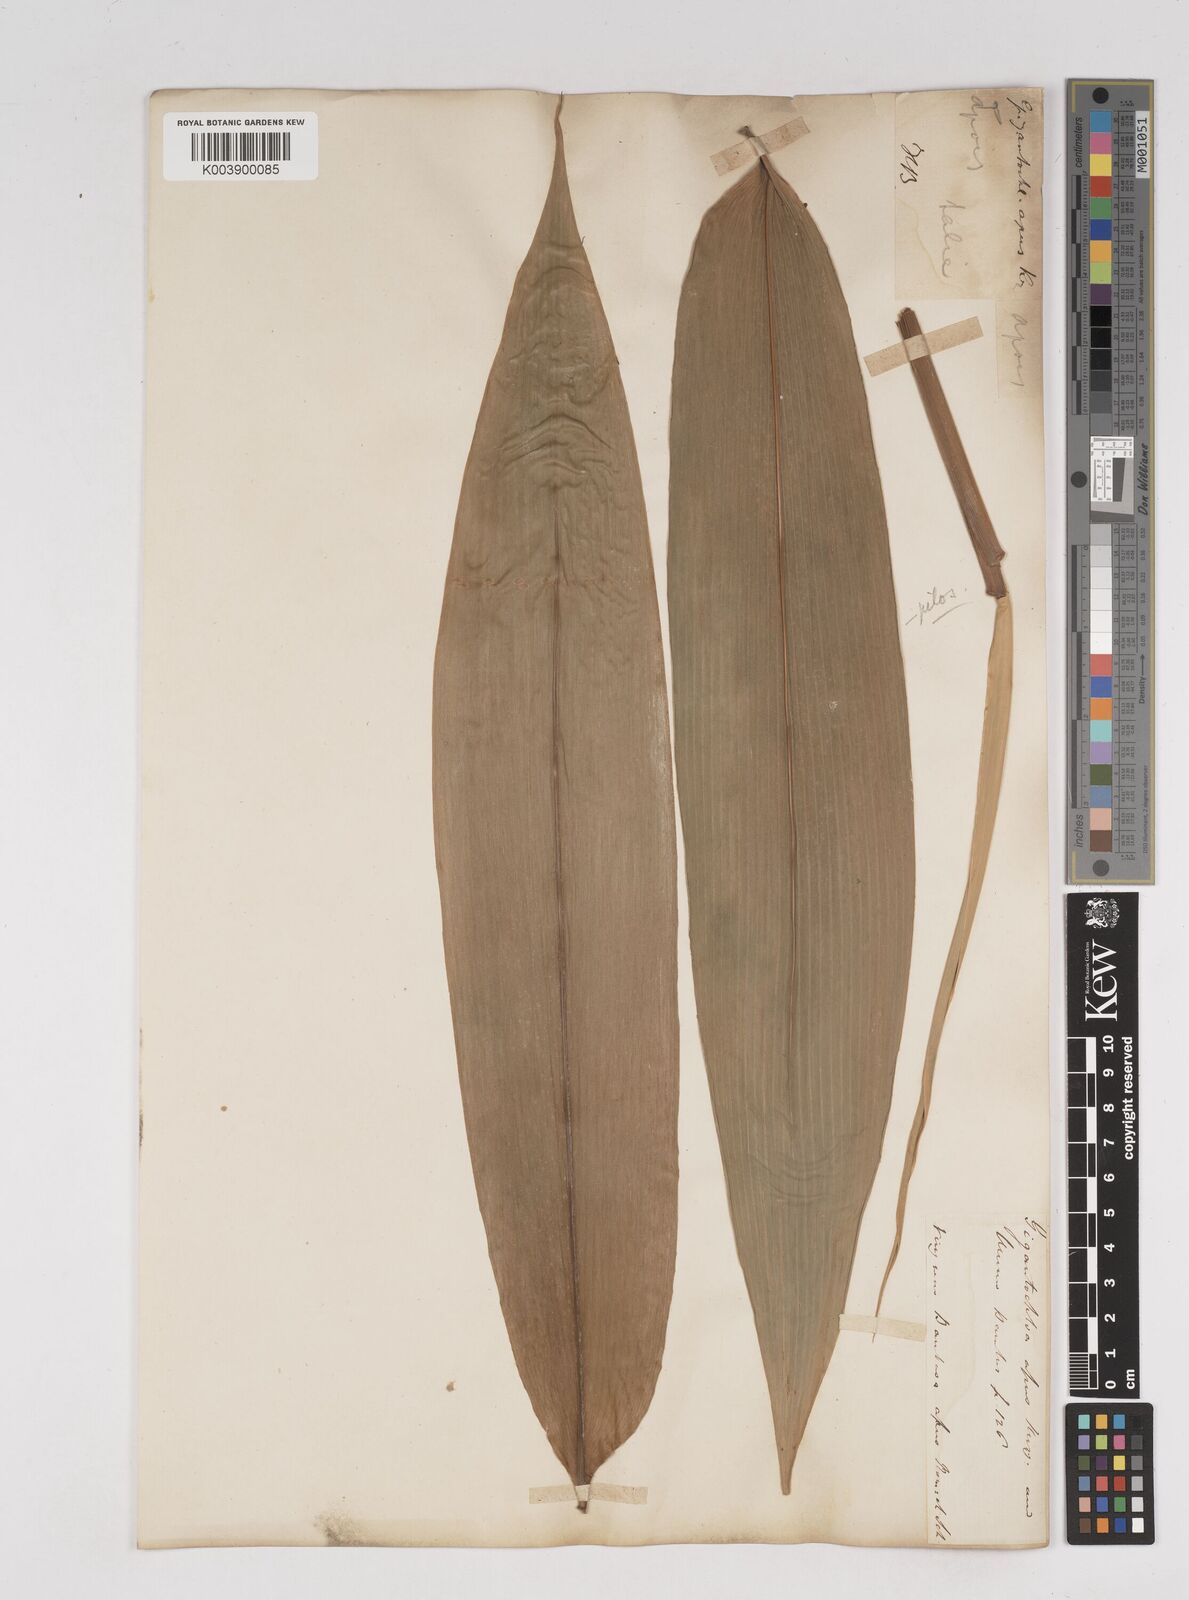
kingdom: Plantae
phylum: Tracheophyta
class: Liliopsida
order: Poales
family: Poaceae
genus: Gigantochloa
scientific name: Gigantochloa apus
